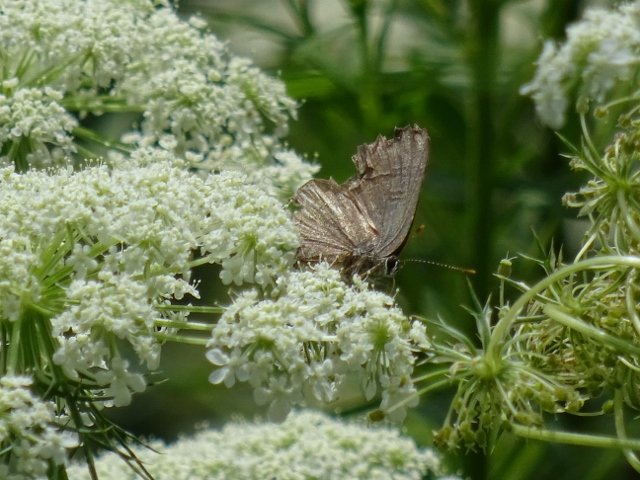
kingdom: Animalia
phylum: Arthropoda
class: Insecta
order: Lepidoptera
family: Lycaenidae
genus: Satyrium
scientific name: Satyrium
